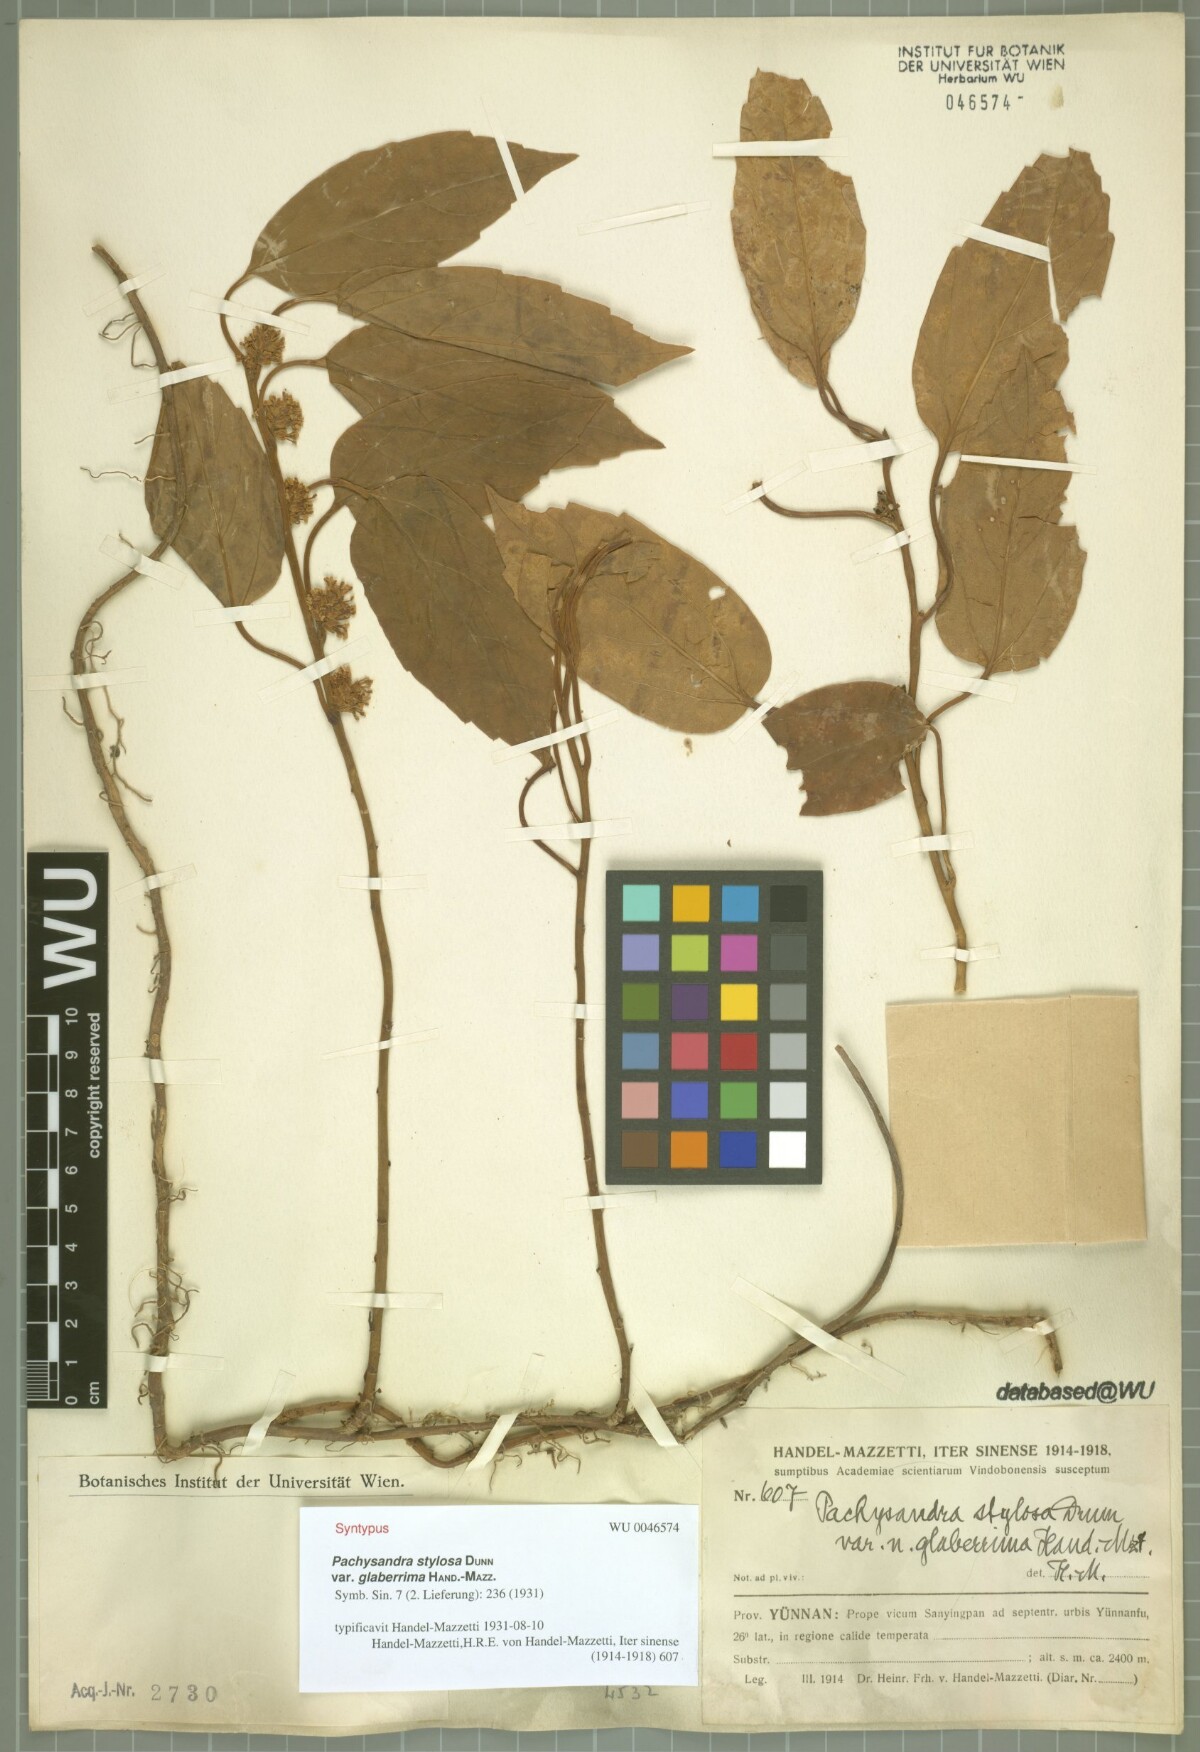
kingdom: Plantae
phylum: Tracheophyta
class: Magnoliopsida
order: Buxales
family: Buxaceae
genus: Pachysandra
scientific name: Pachysandra axillaris
